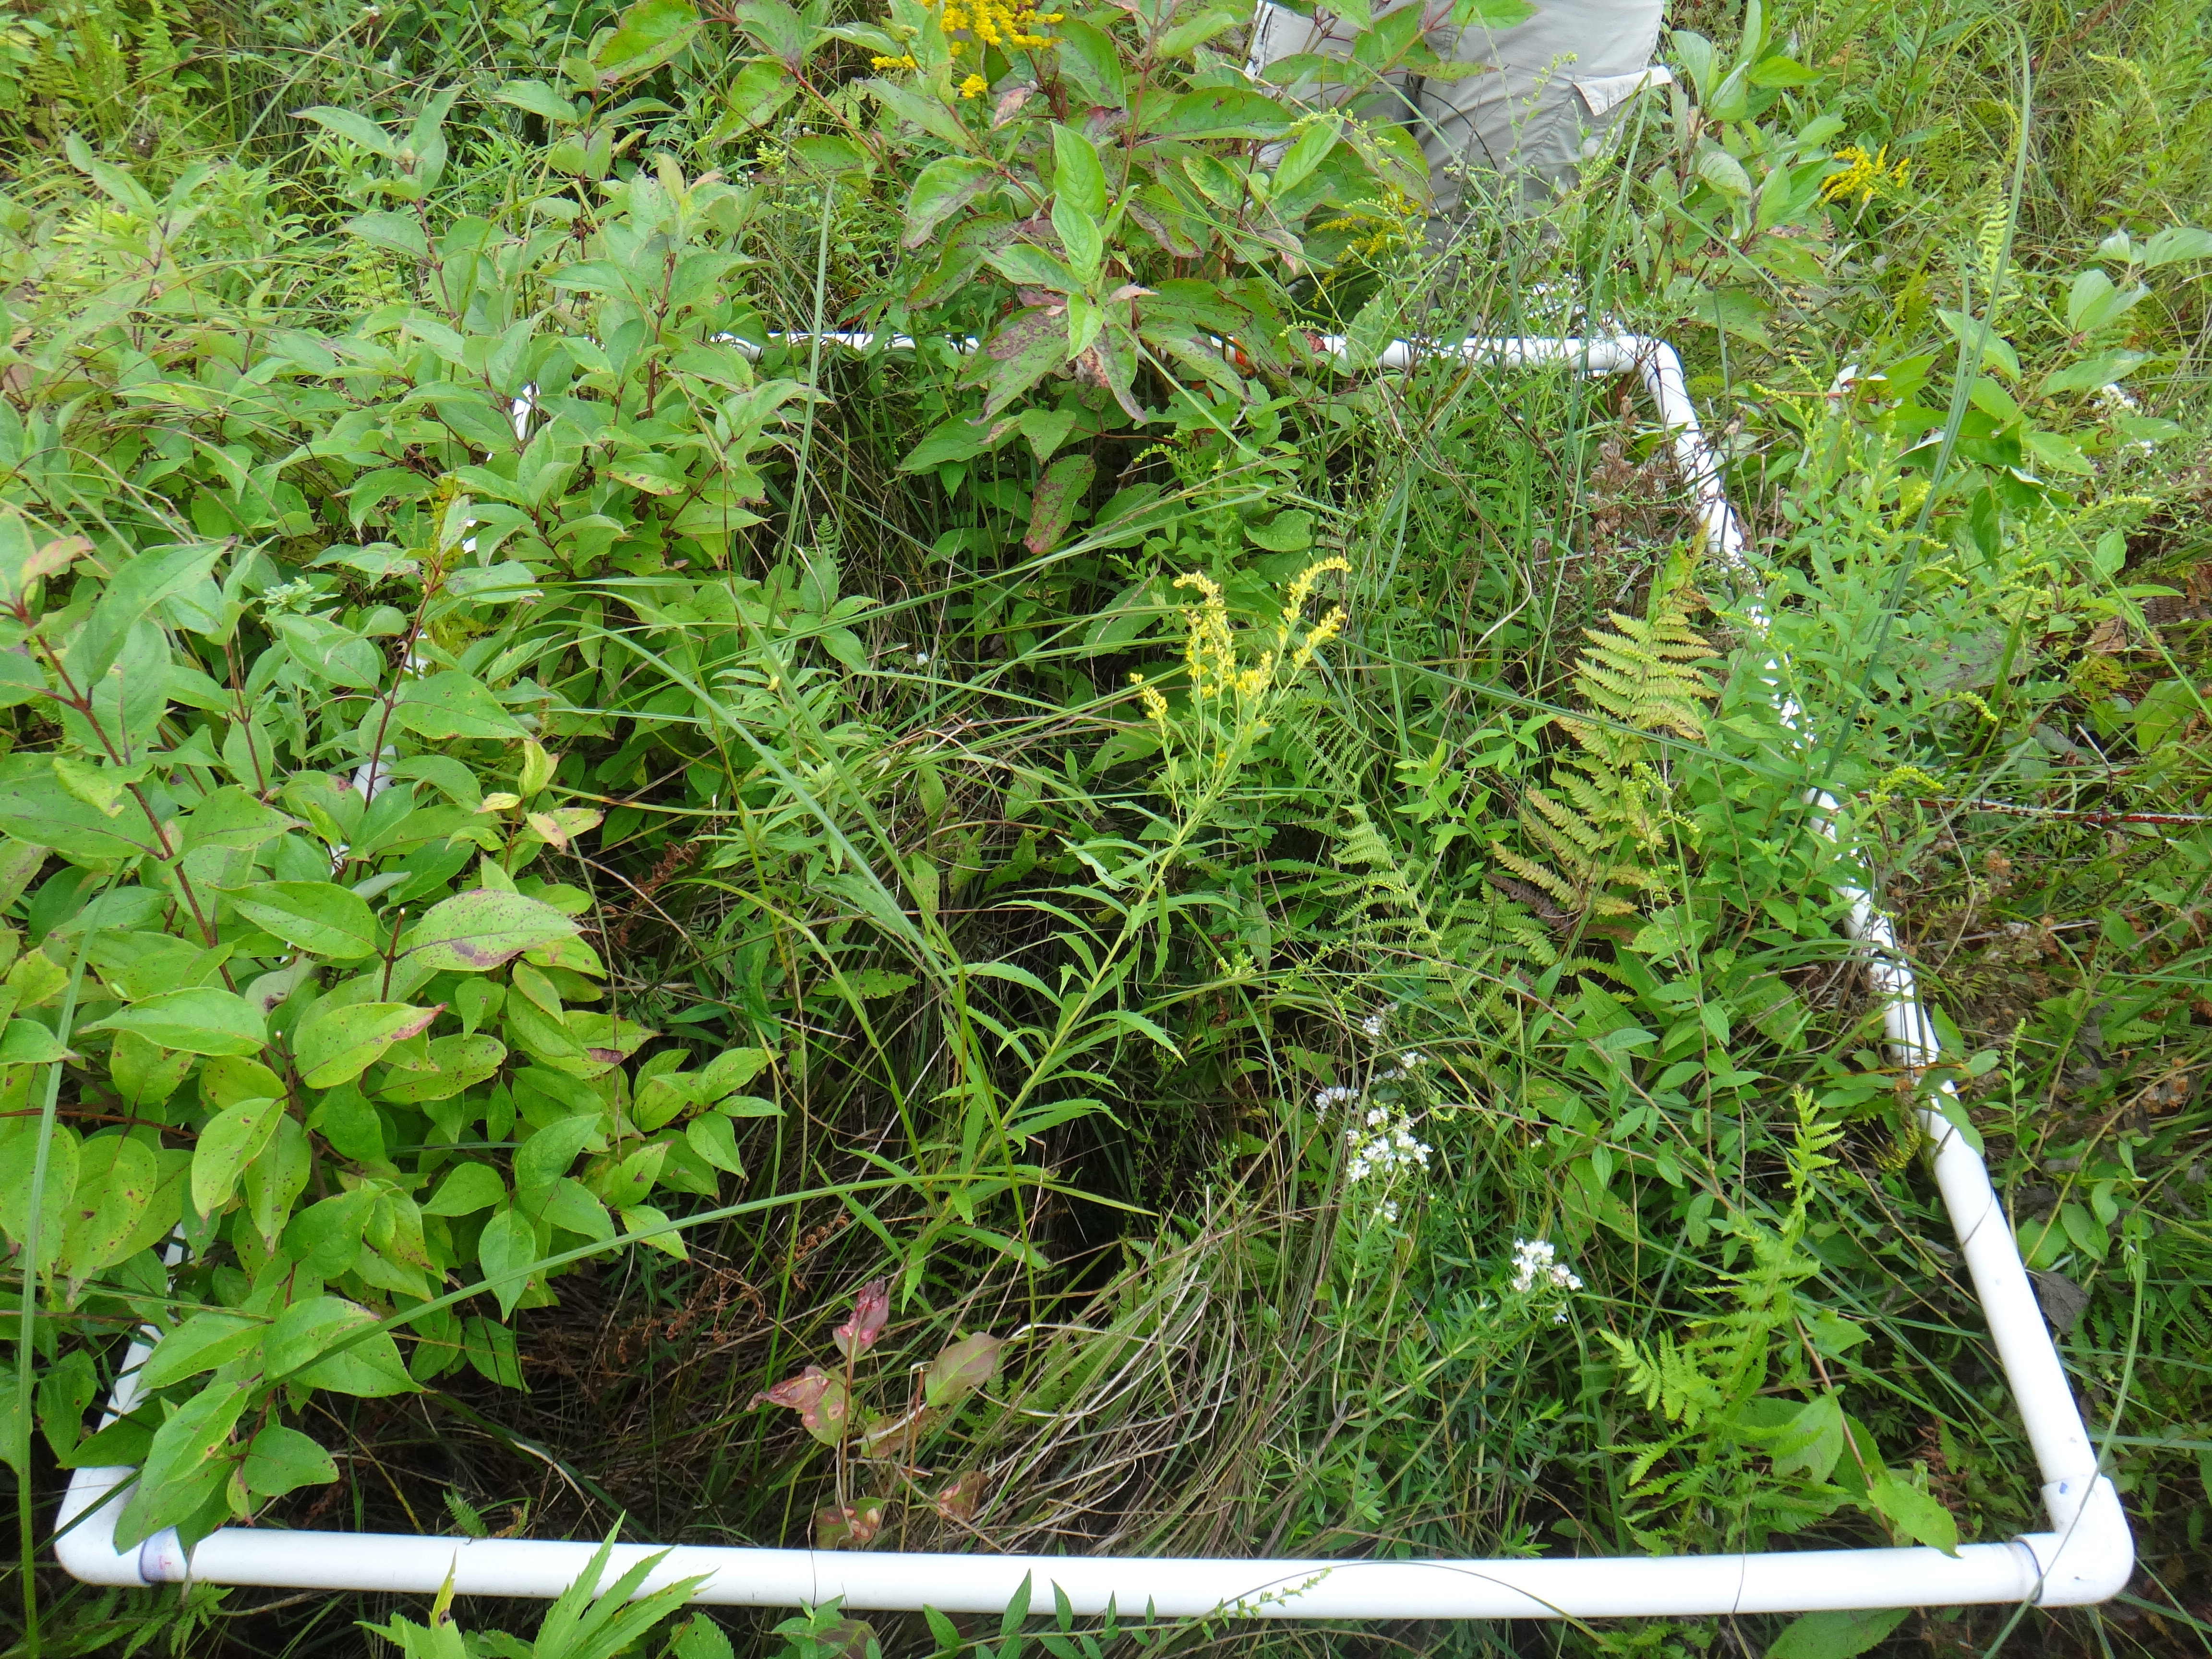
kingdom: Plantae
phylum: Tracheophyta
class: Magnoliopsida
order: Rosales
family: Rosaceae
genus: Spiraea
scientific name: Spiraea alba
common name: Pale bridewort
